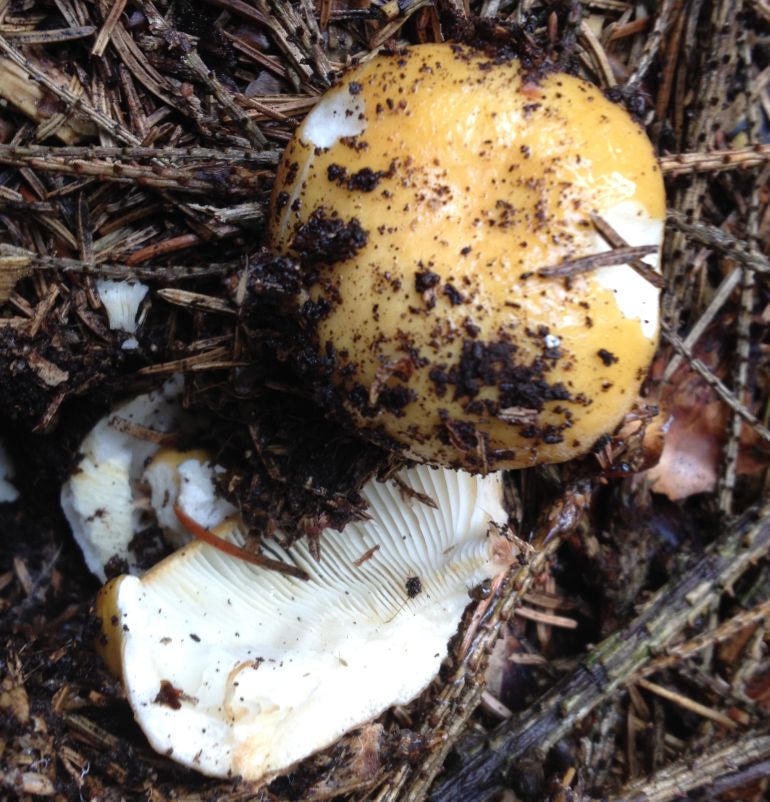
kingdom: Fungi
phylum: Basidiomycota
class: Agaricomycetes
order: Russulales
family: Russulaceae
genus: Russula
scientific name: Russula ochroleuca
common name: okkergul skørhat
